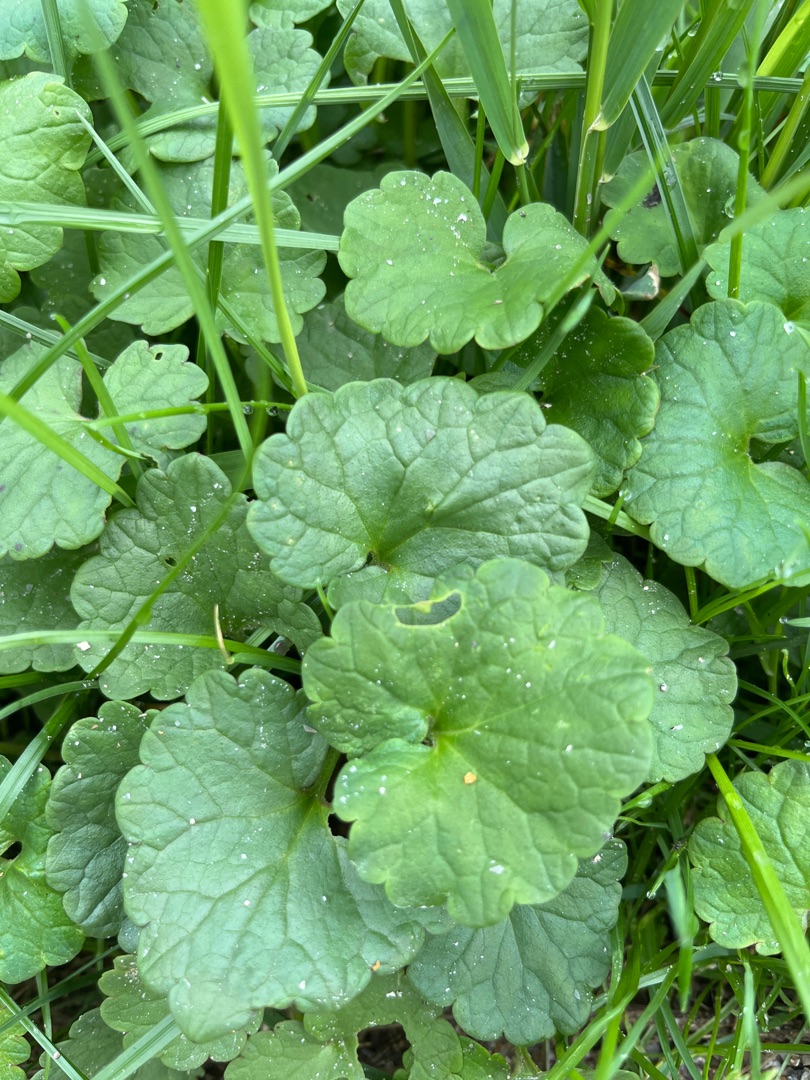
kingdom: Plantae
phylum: Tracheophyta
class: Magnoliopsida
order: Lamiales
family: Lamiaceae
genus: Glechoma
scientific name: Glechoma hederacea
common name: Korsknap
